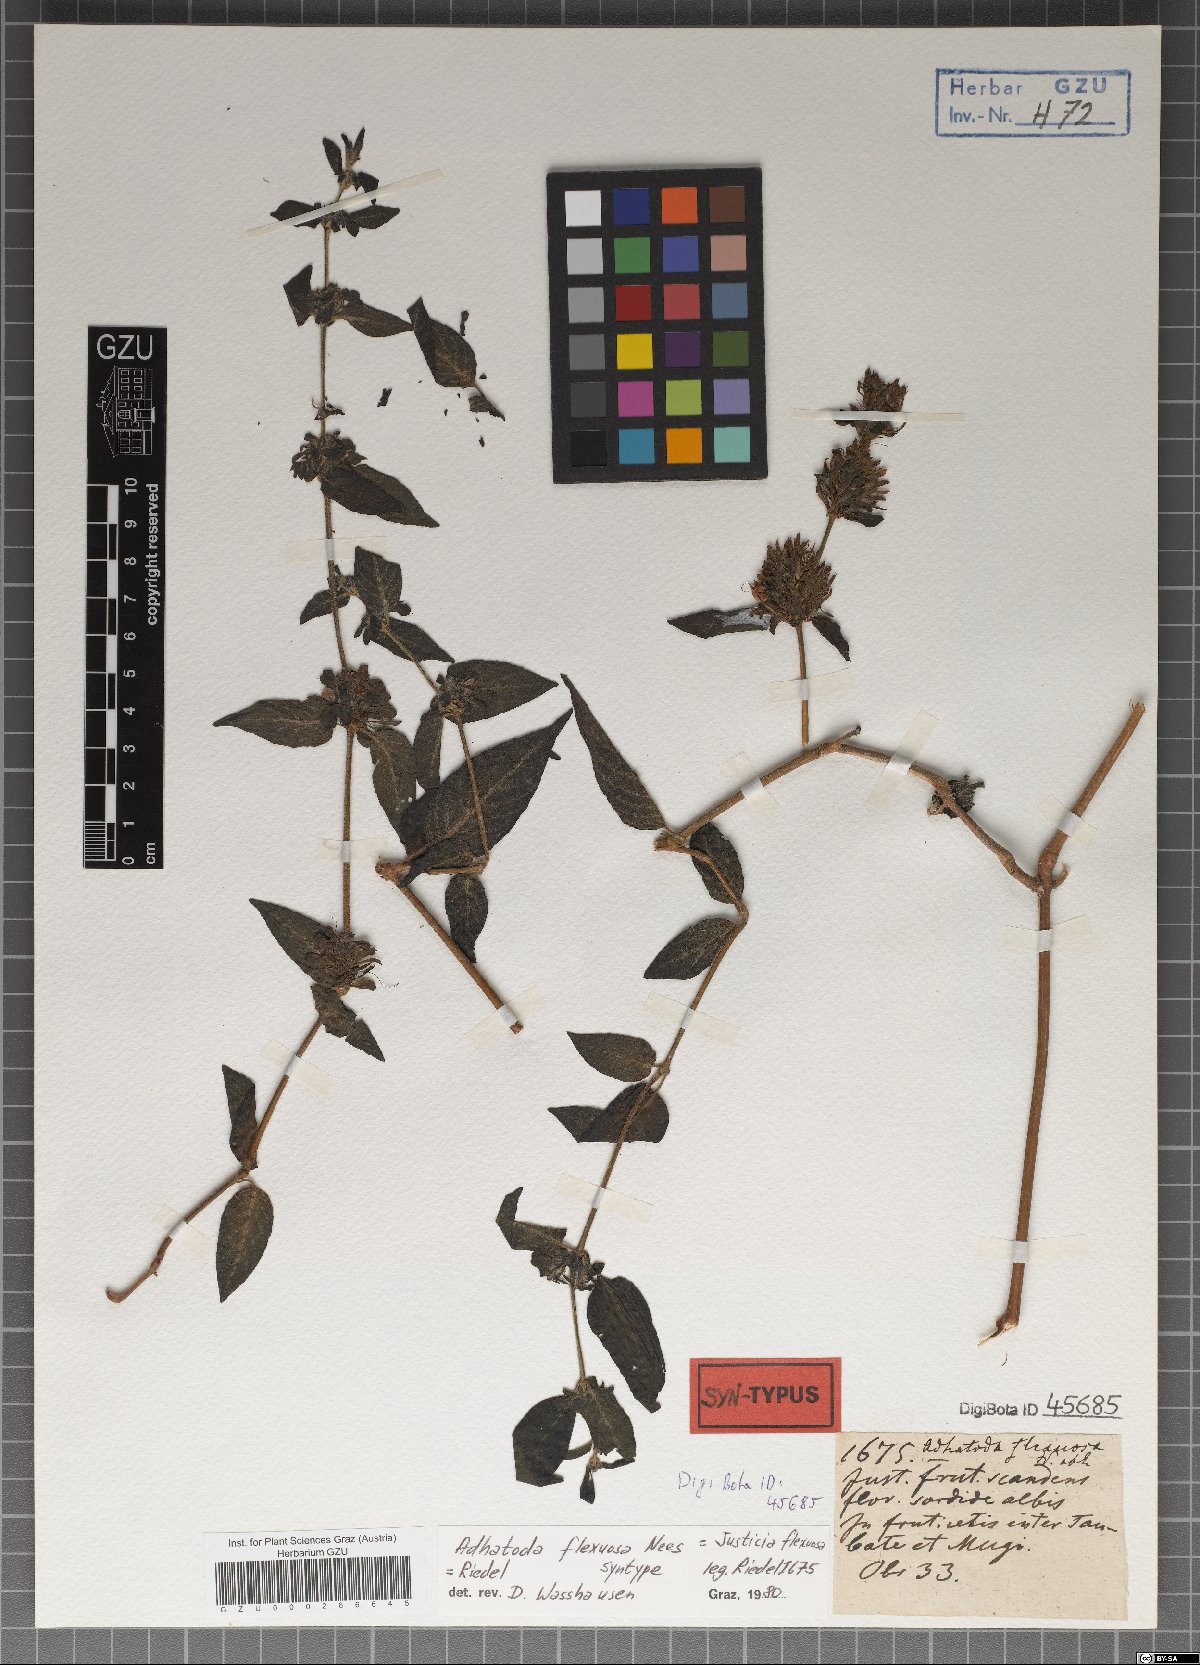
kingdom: Plantae
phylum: Tracheophyta
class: Magnoliopsida
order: Lamiales
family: Acanthaceae
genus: Poikilacanthus
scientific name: Poikilacanthus glandulosus
